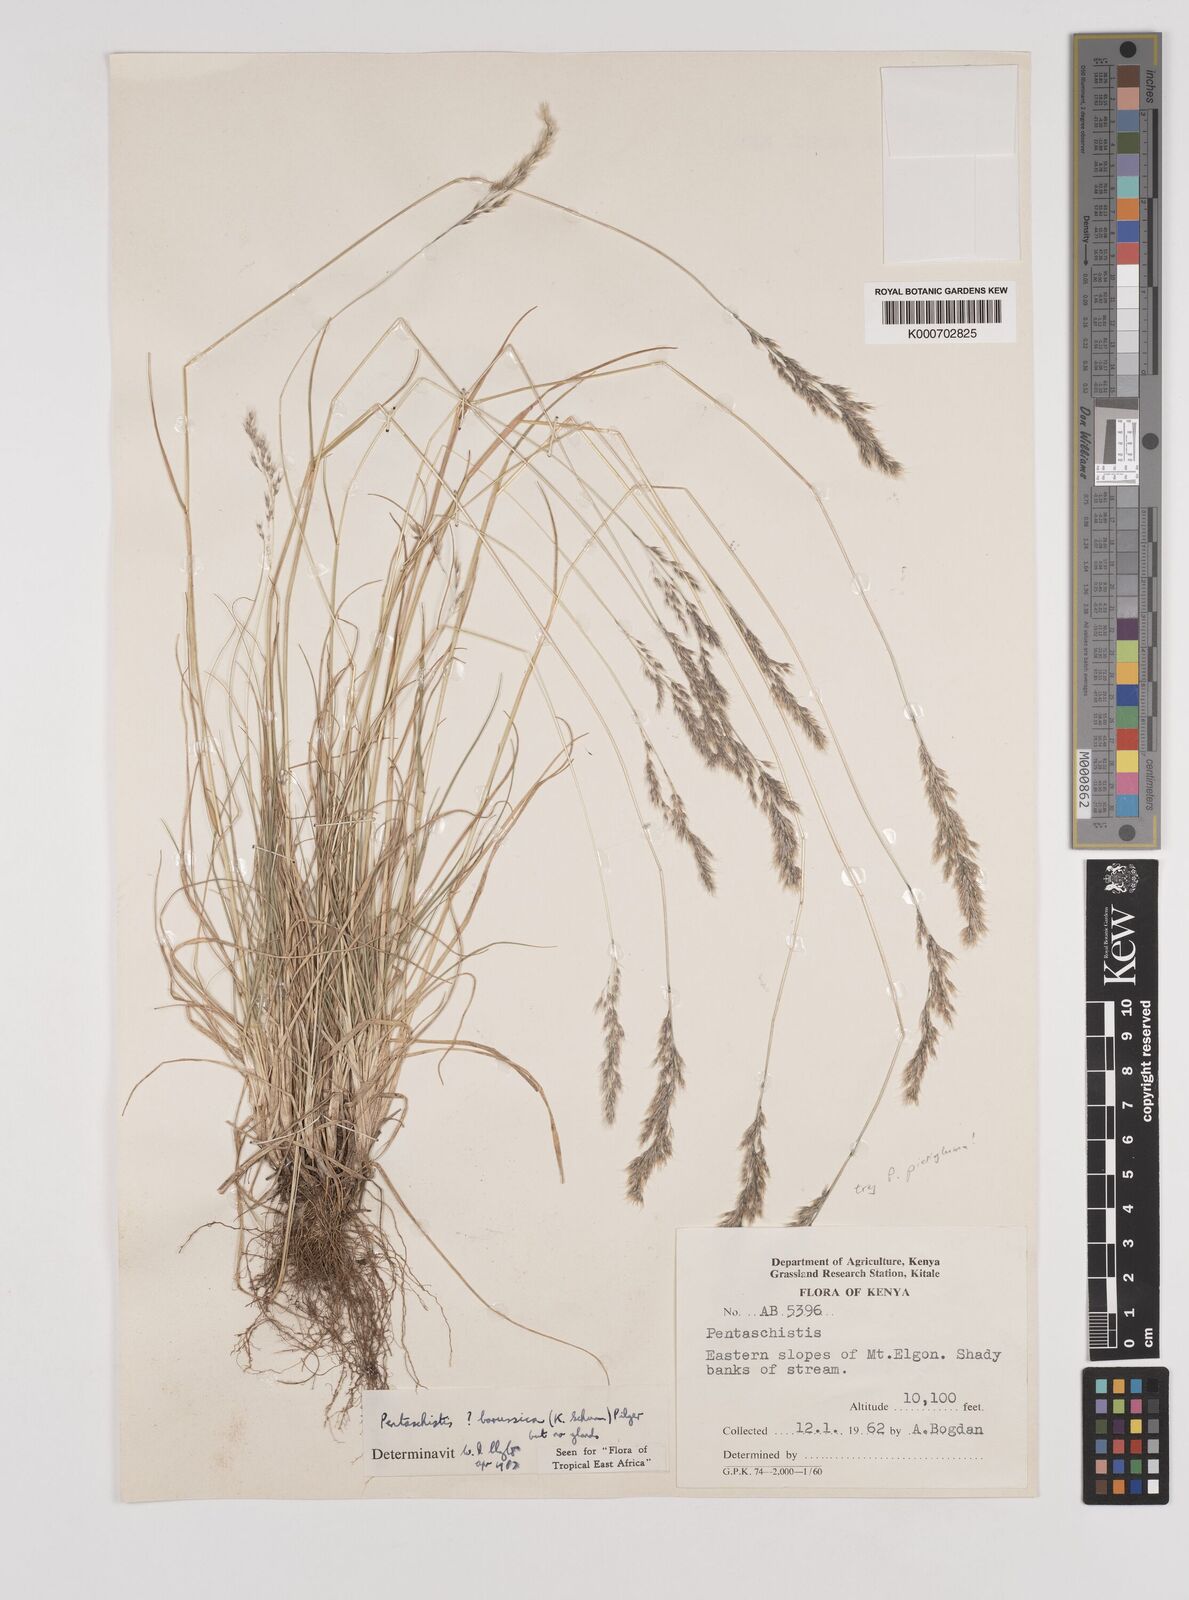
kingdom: Plantae
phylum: Tracheophyta
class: Liliopsida
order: Poales
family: Poaceae
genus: Pentameris
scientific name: Pentameris pictigluma
